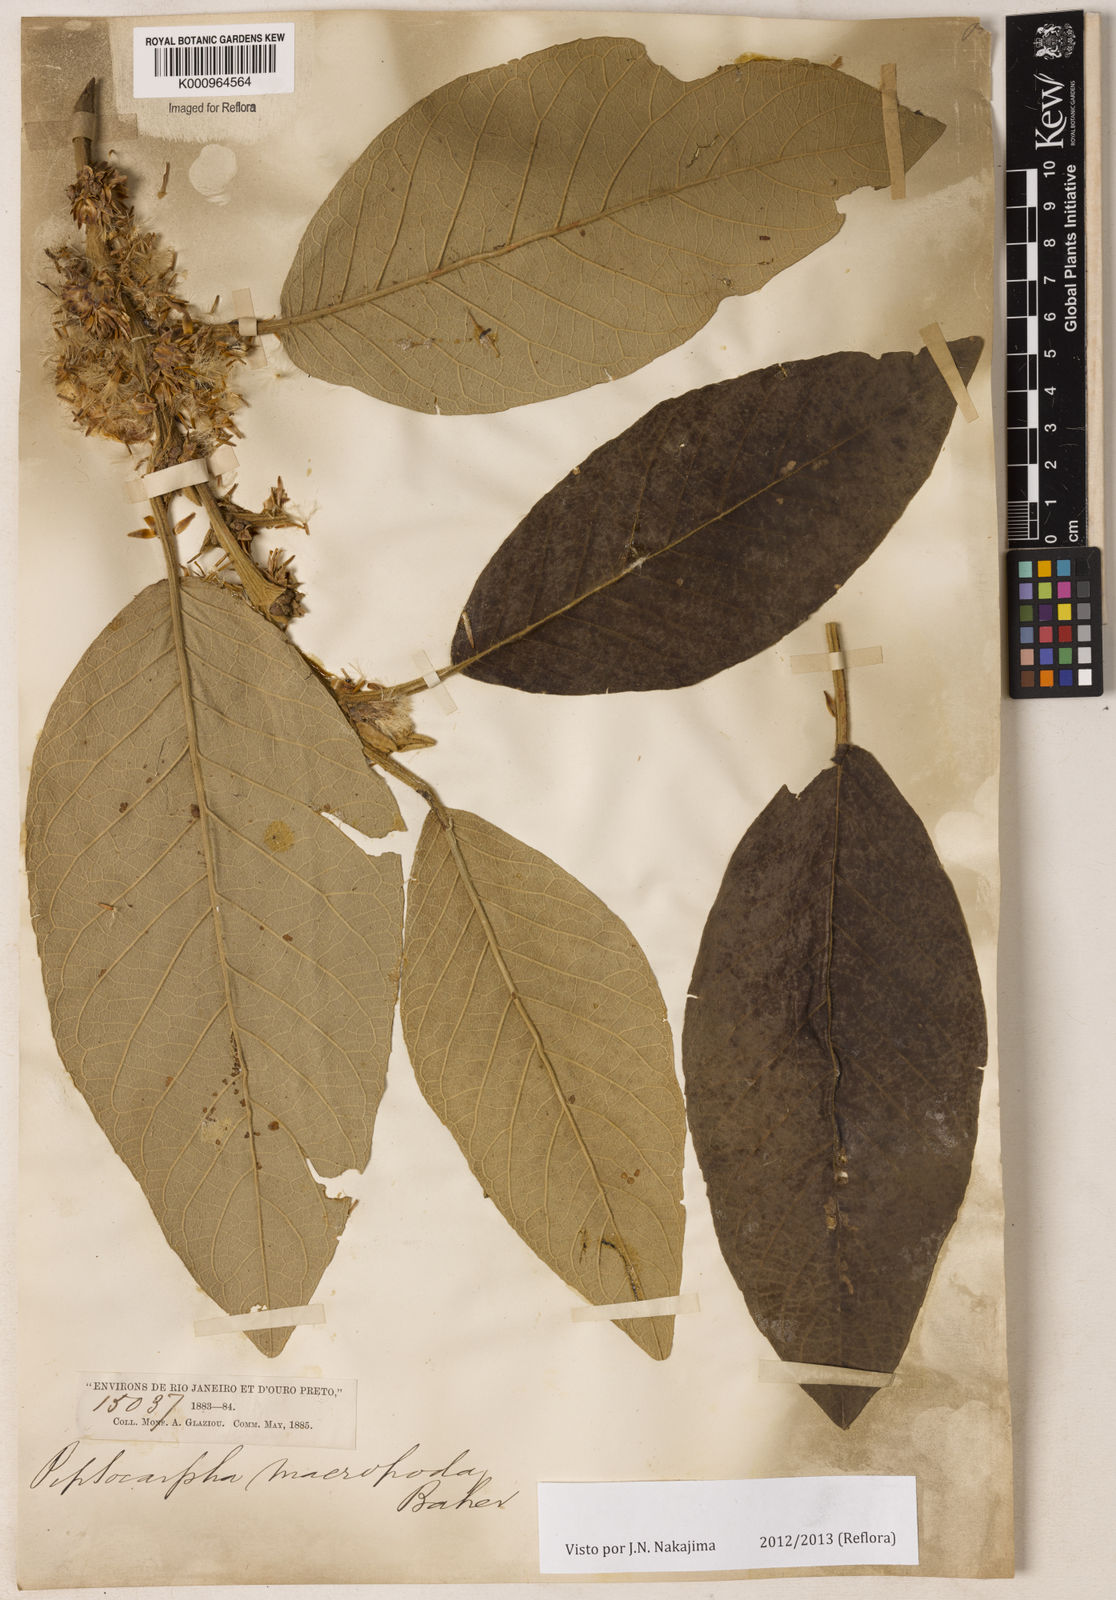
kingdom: Plantae
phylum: Tracheophyta
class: Magnoliopsida
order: Asterales
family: Asteraceae
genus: Piptocarpha
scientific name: Piptocarpha macropoda
